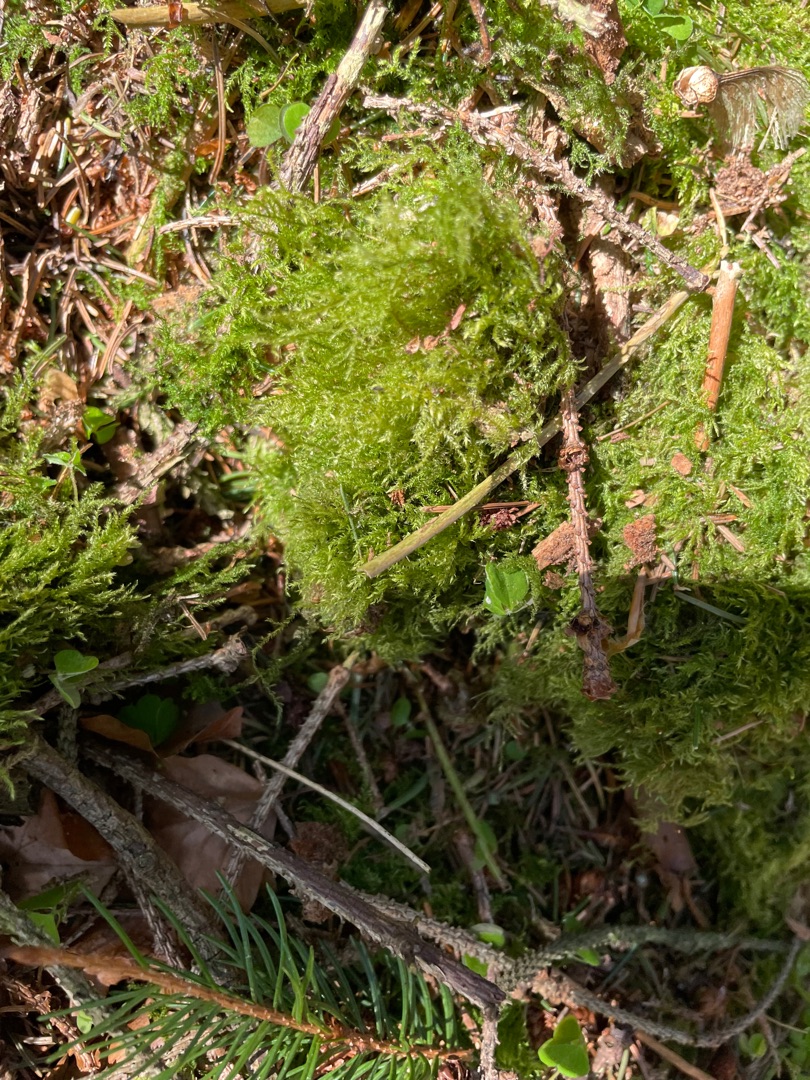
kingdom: Plantae
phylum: Bryophyta
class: Bryopsida
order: Hypnales
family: Brachytheciaceae
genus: Kindbergia
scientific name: Kindbergia praelonga
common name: Forskelligbladet vortetand
